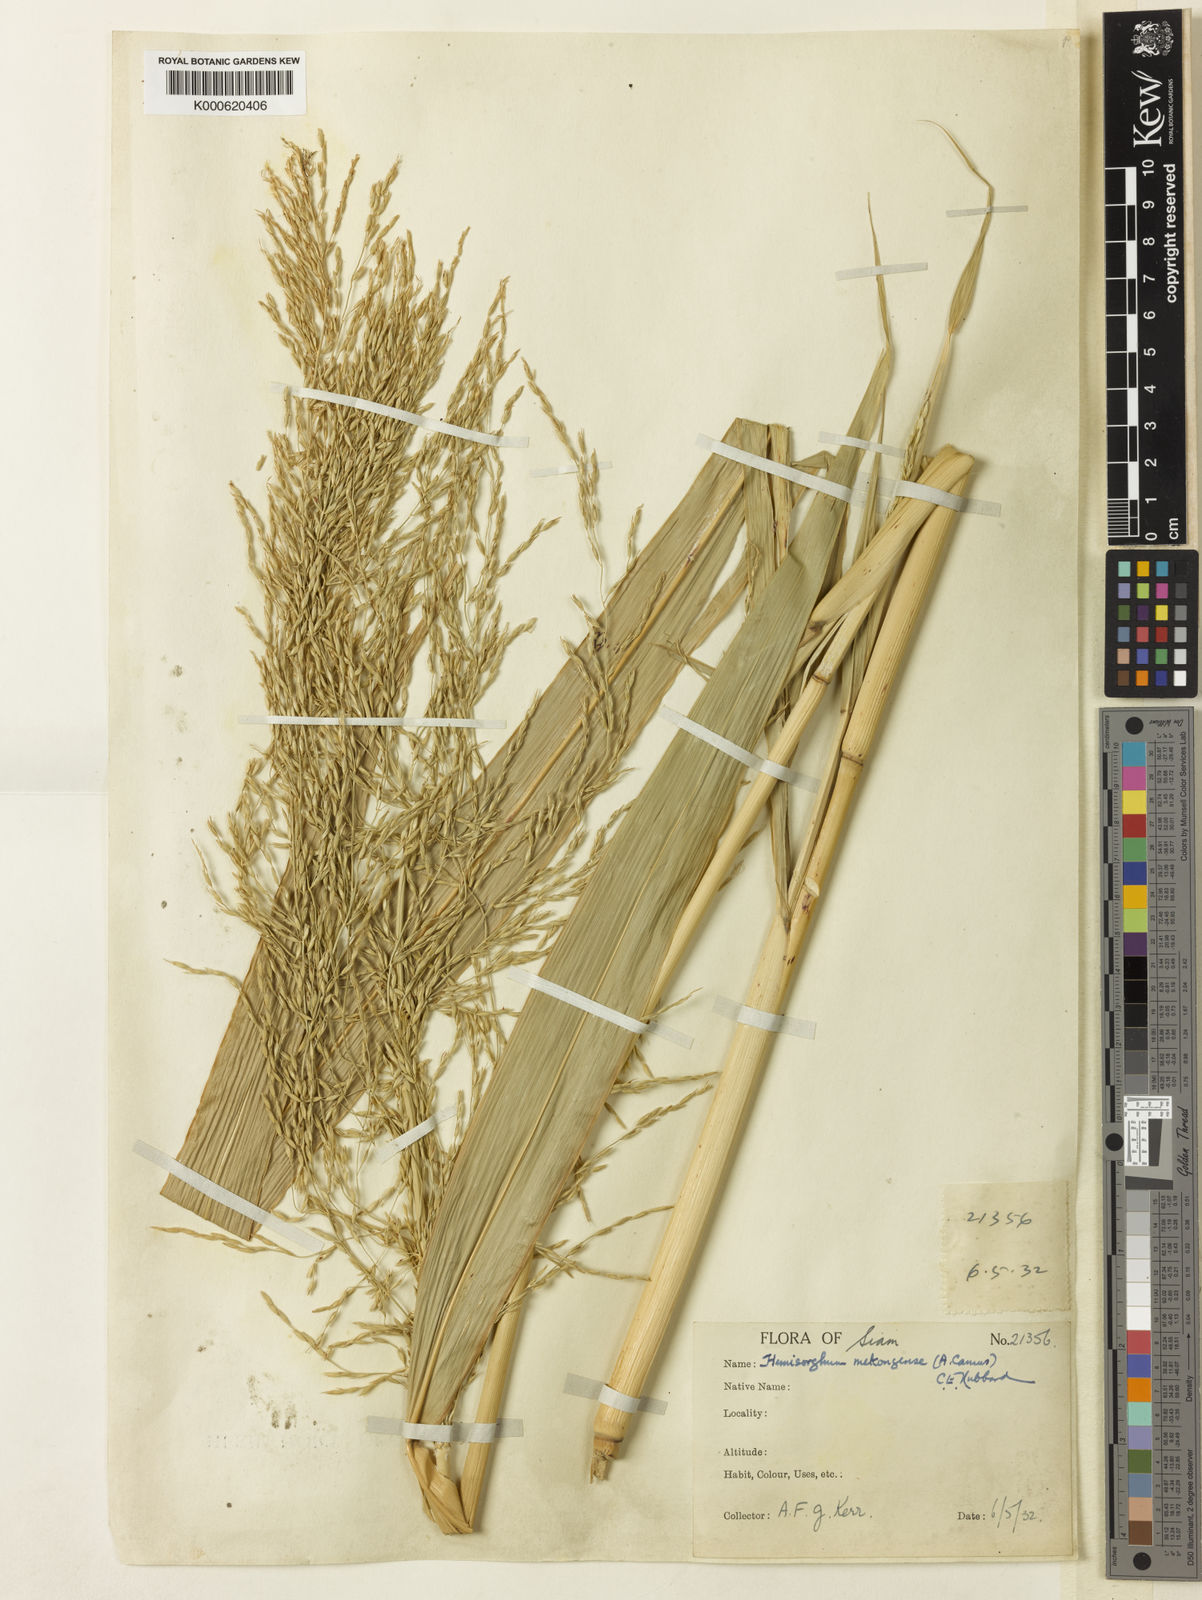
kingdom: Plantae
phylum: Tracheophyta
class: Liliopsida
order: Poales
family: Poaceae
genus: Hemisorghum
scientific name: Hemisorghum mekongense
